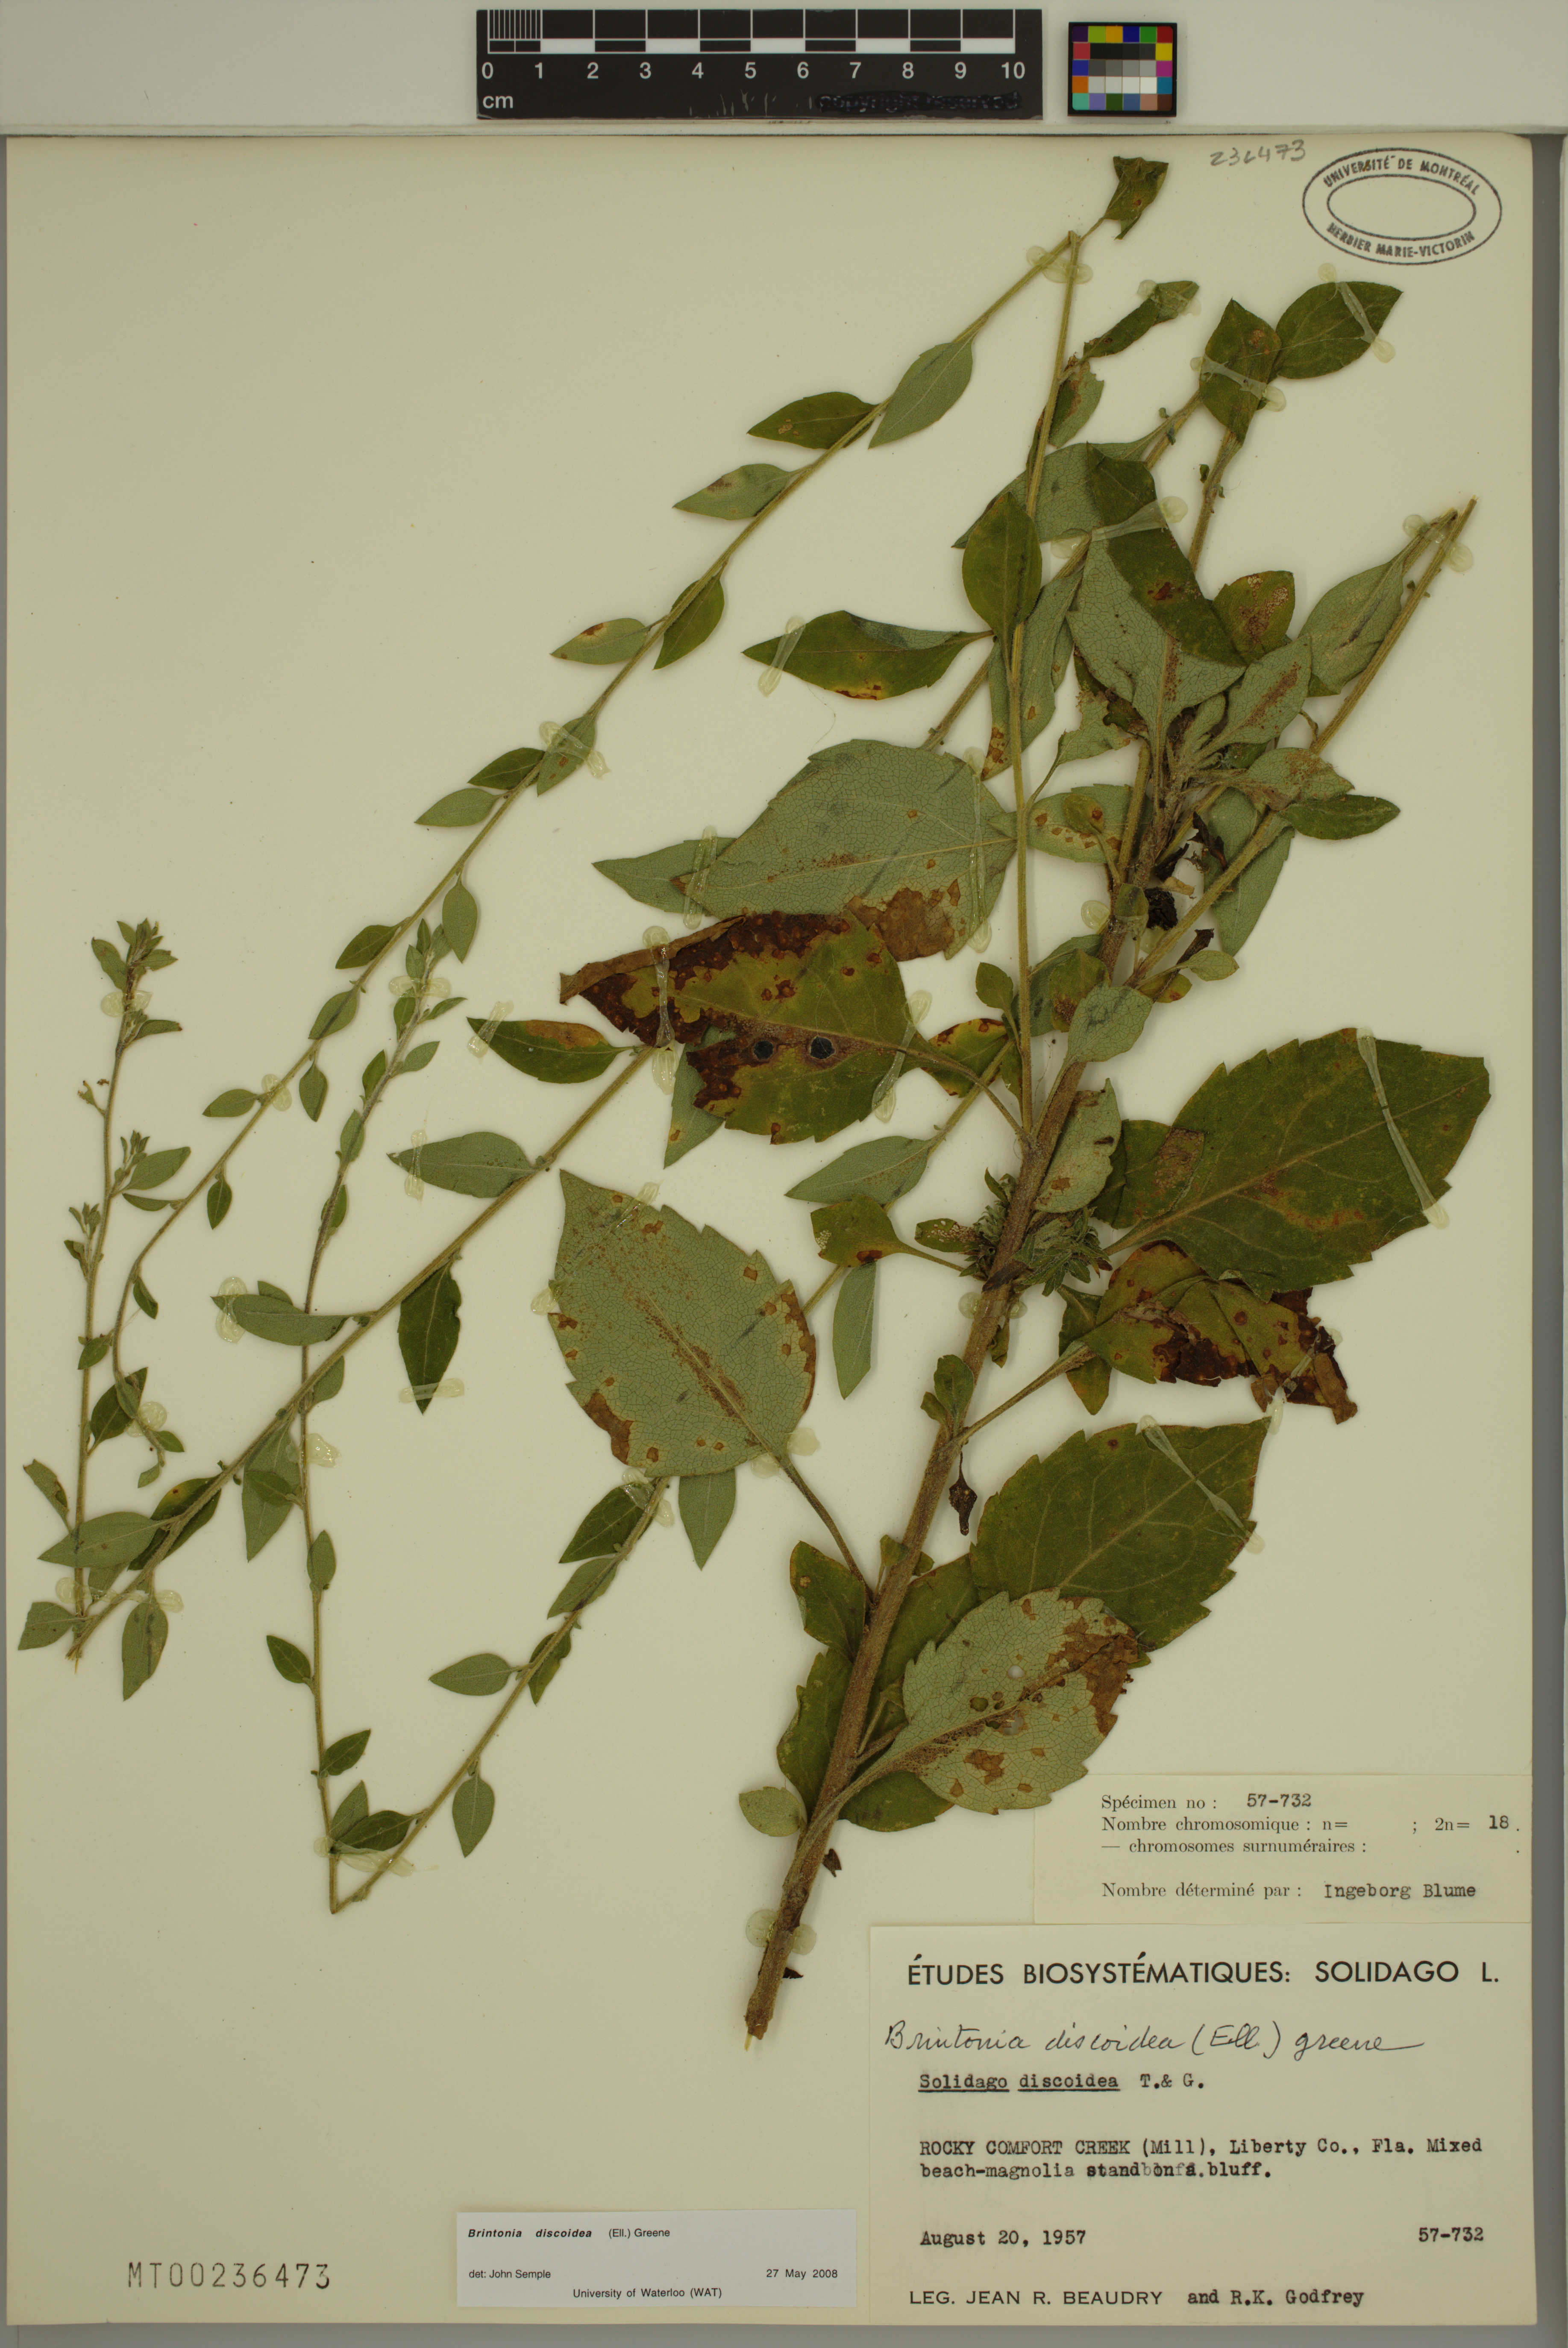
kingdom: Plantae
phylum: Tracheophyta
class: Magnoliopsida
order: Asterales
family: Asteraceae
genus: Solidago
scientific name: Solidago discoidea
